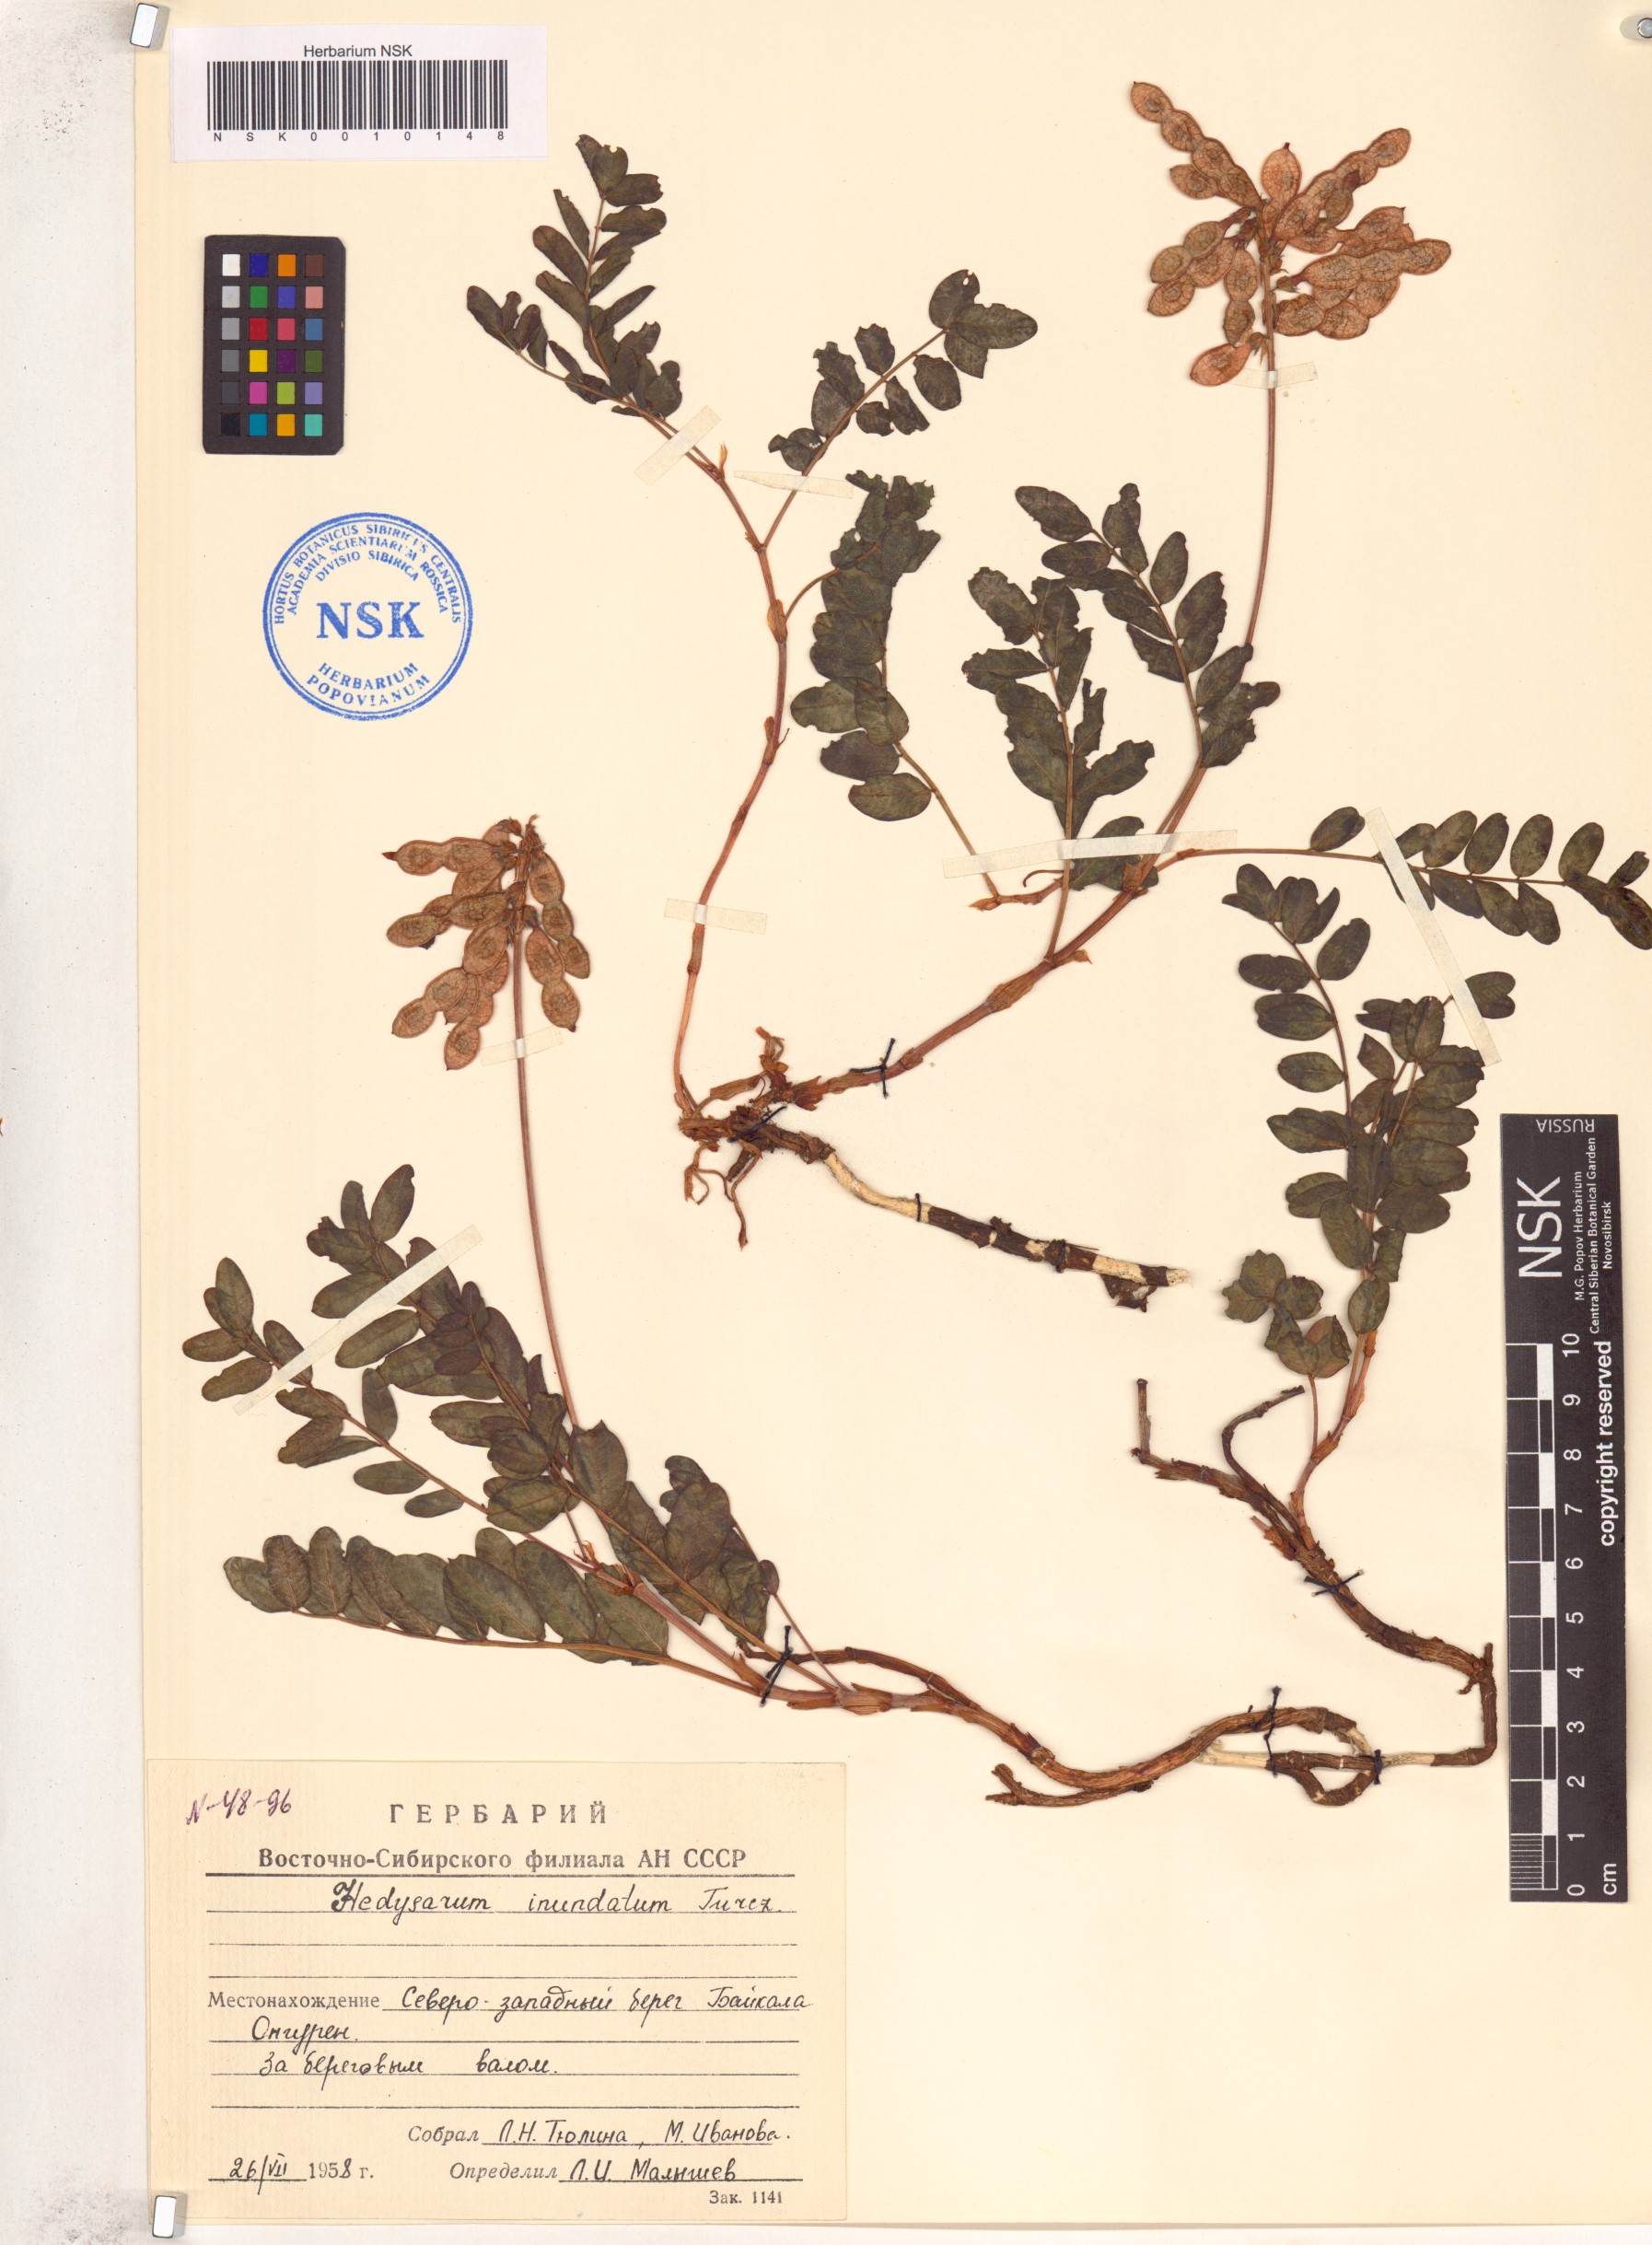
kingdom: Plantae
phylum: Tracheophyta
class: Magnoliopsida
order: Fabales
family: Fabaceae
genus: Hedysarum
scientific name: Hedysarum inundatum
